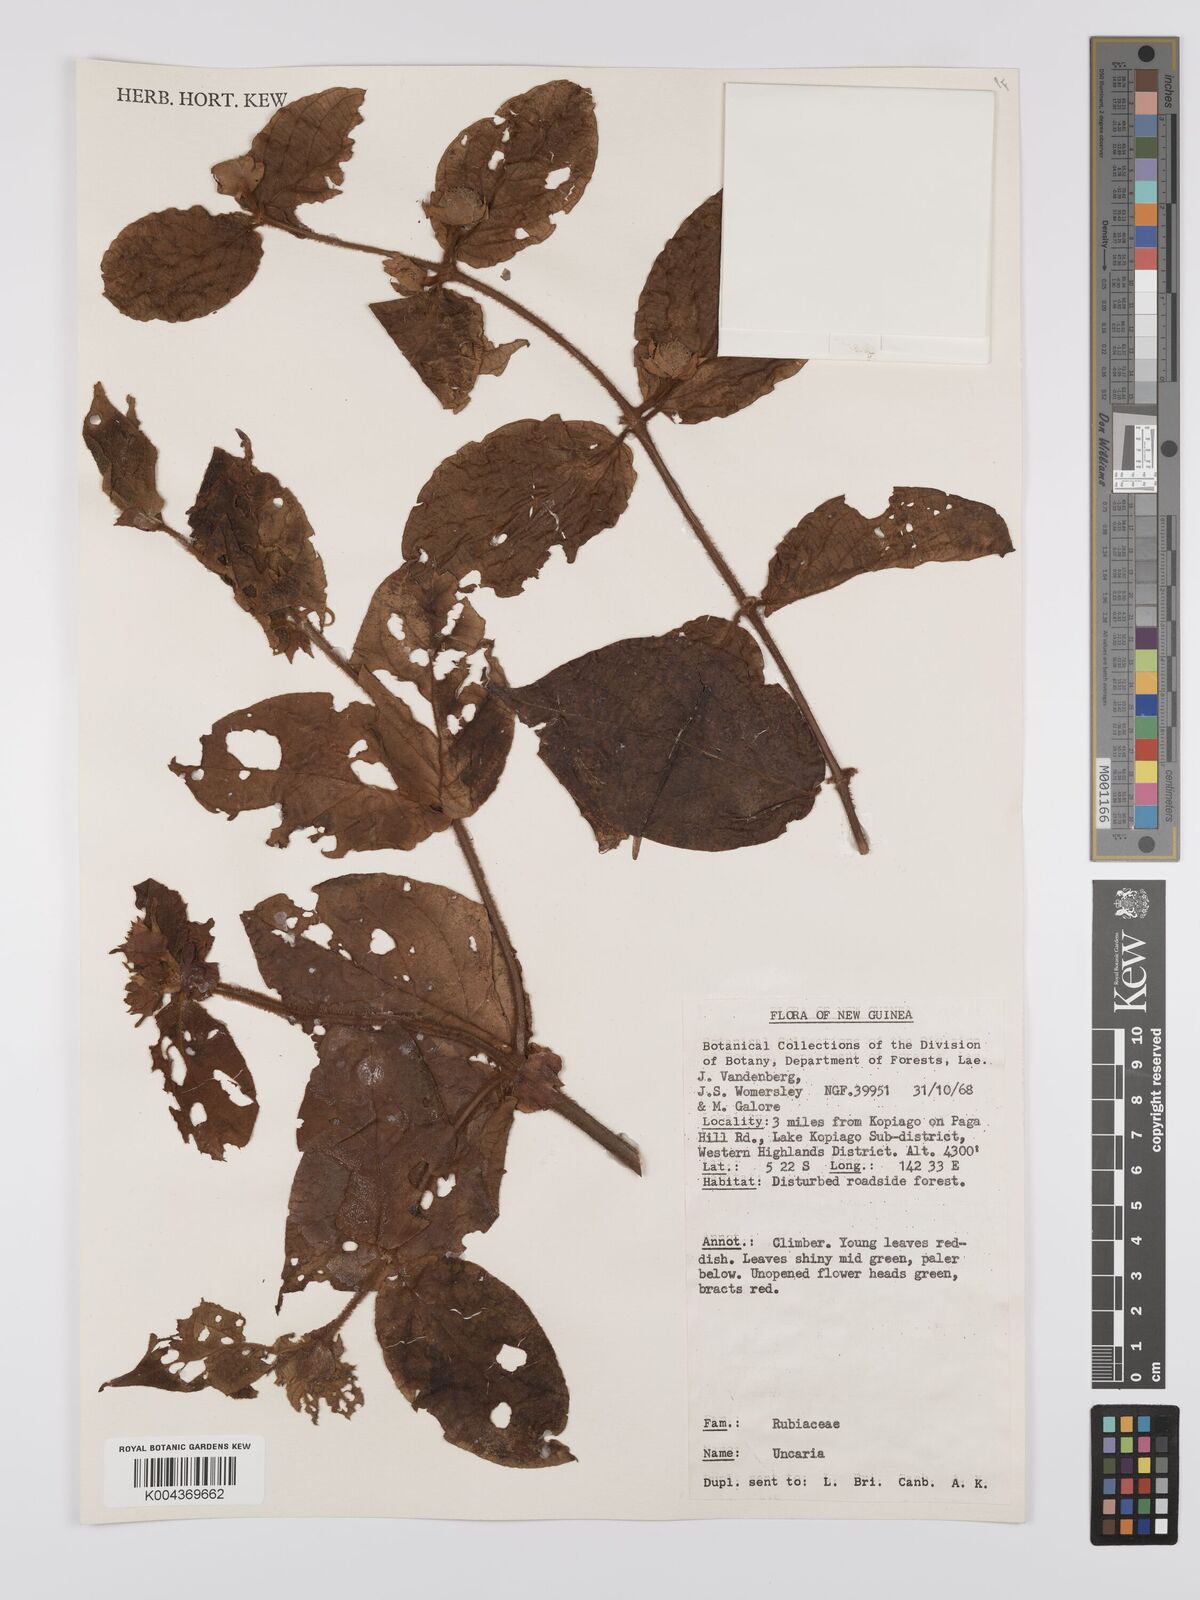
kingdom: Plantae
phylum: Tracheophyta
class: Magnoliopsida
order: Gentianales
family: Rubiaceae
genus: Uncaria
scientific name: Uncaria lanosa
